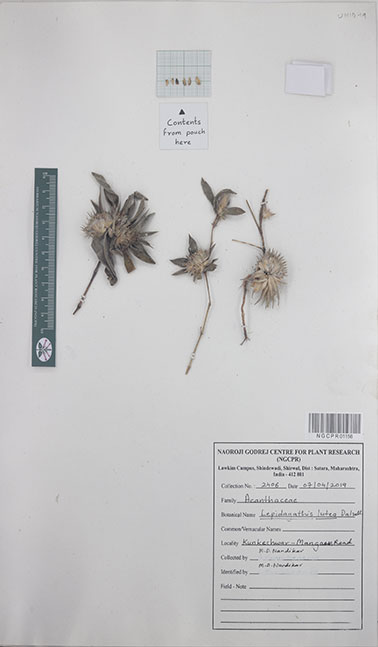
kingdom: Plantae
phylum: Tracheophyta
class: Magnoliopsida
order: Lamiales
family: Acanthaceae
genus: Lepidagathis
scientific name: Lepidagathis lutea
